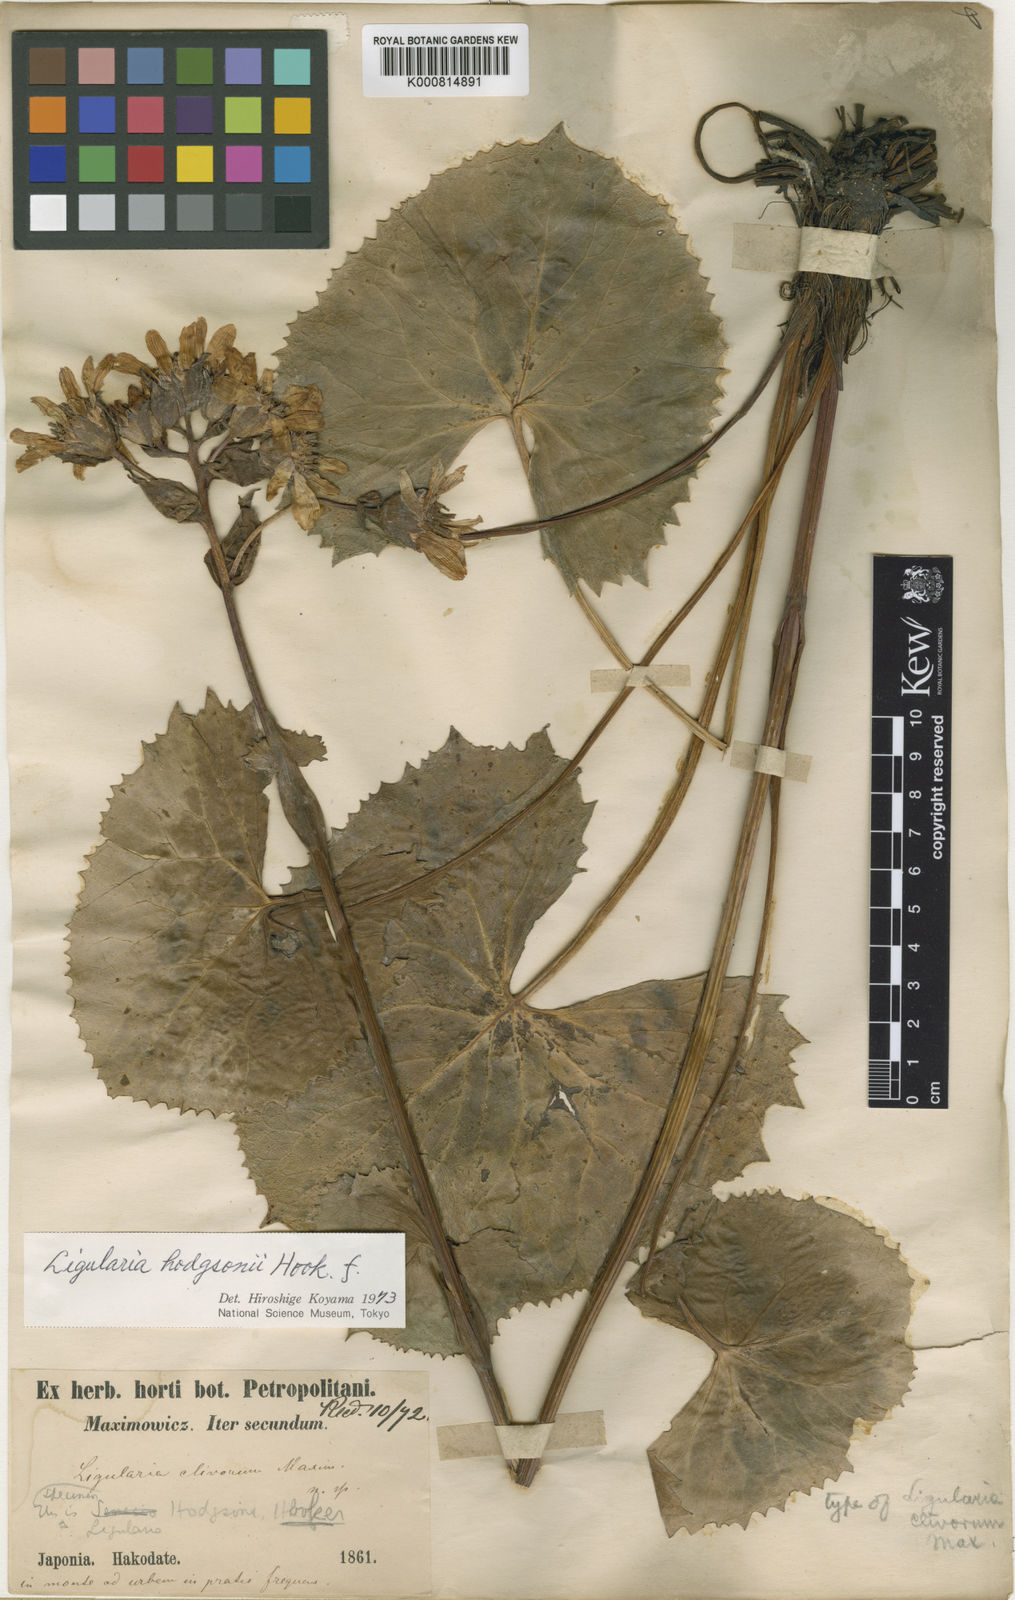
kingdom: Plantae
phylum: Tracheophyta
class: Magnoliopsida
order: Asterales
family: Asteraceae
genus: Ligularia
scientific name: Ligularia hodgsonii
